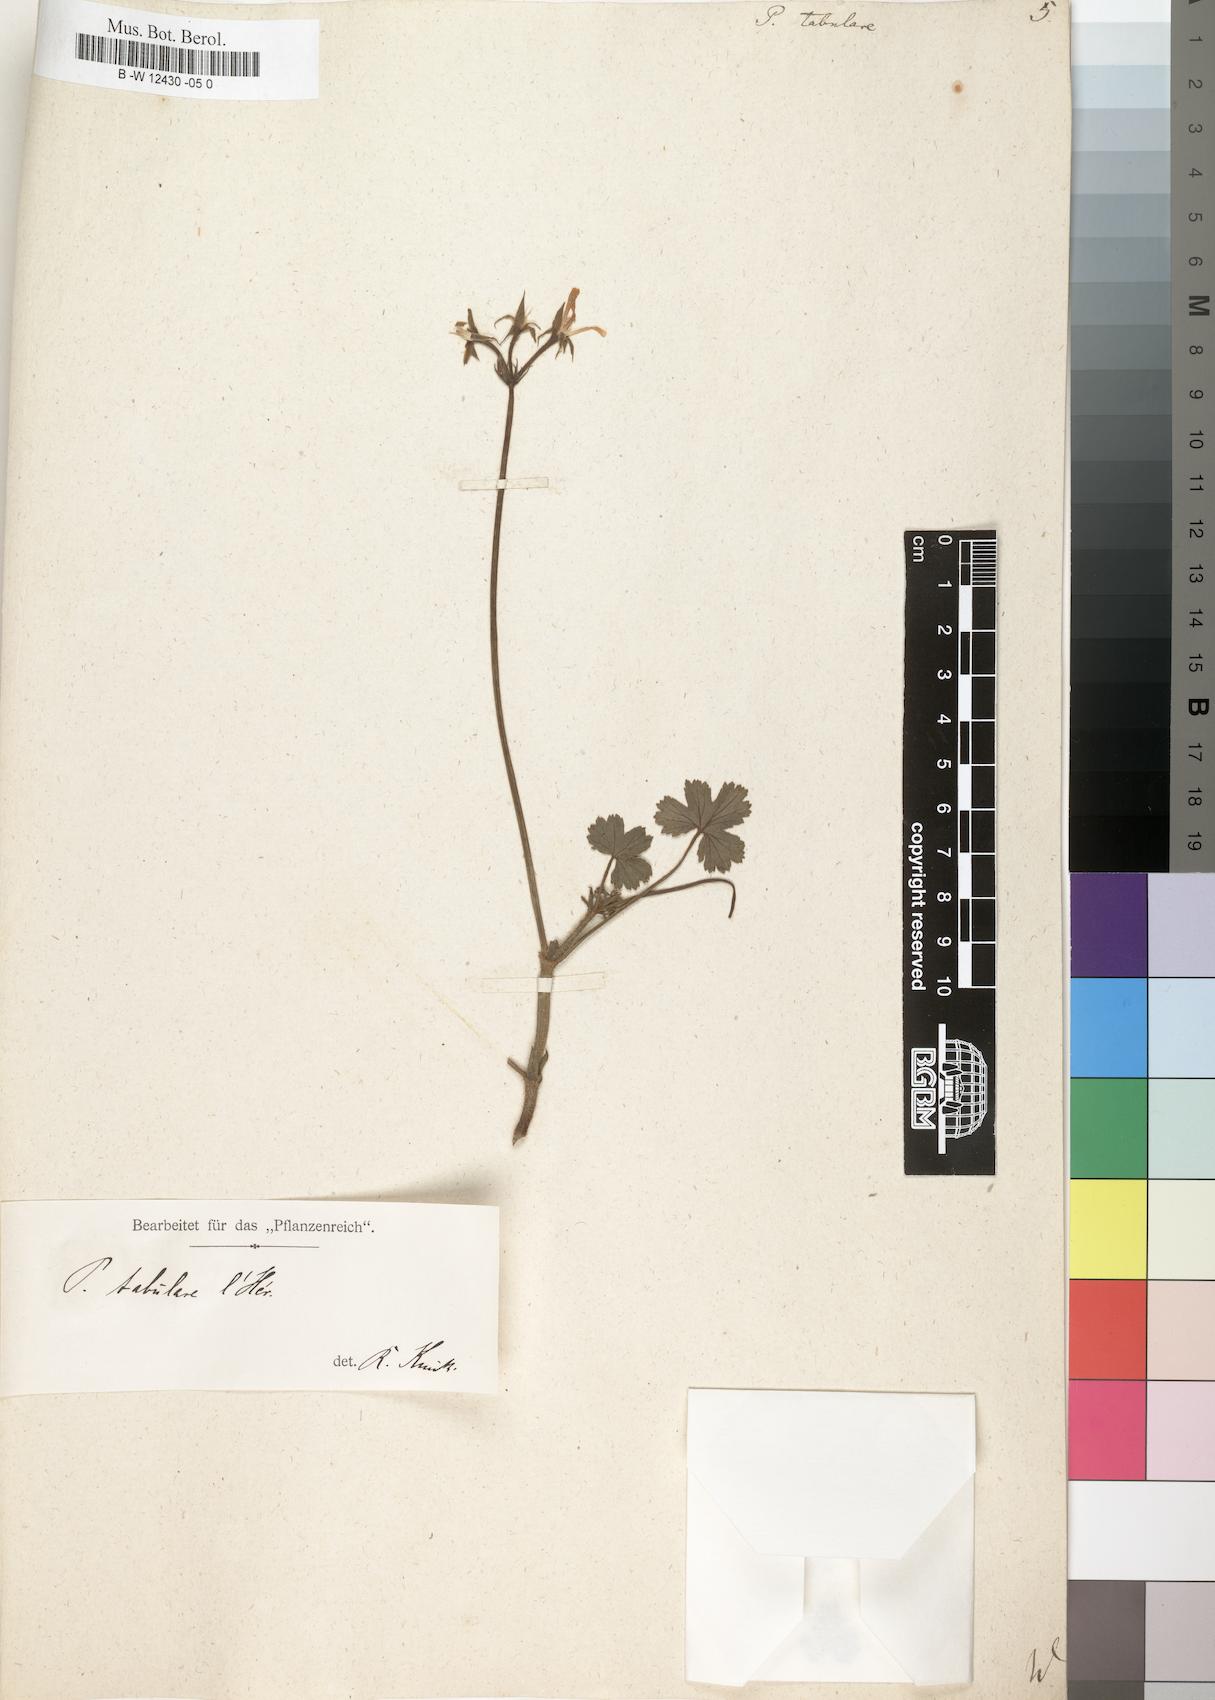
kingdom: Plantae
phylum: Tracheophyta
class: Magnoliopsida
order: Geraniales
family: Geraniaceae
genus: Pelargonium
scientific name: Pelargonium tabulare
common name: Table mountain pelargonium
